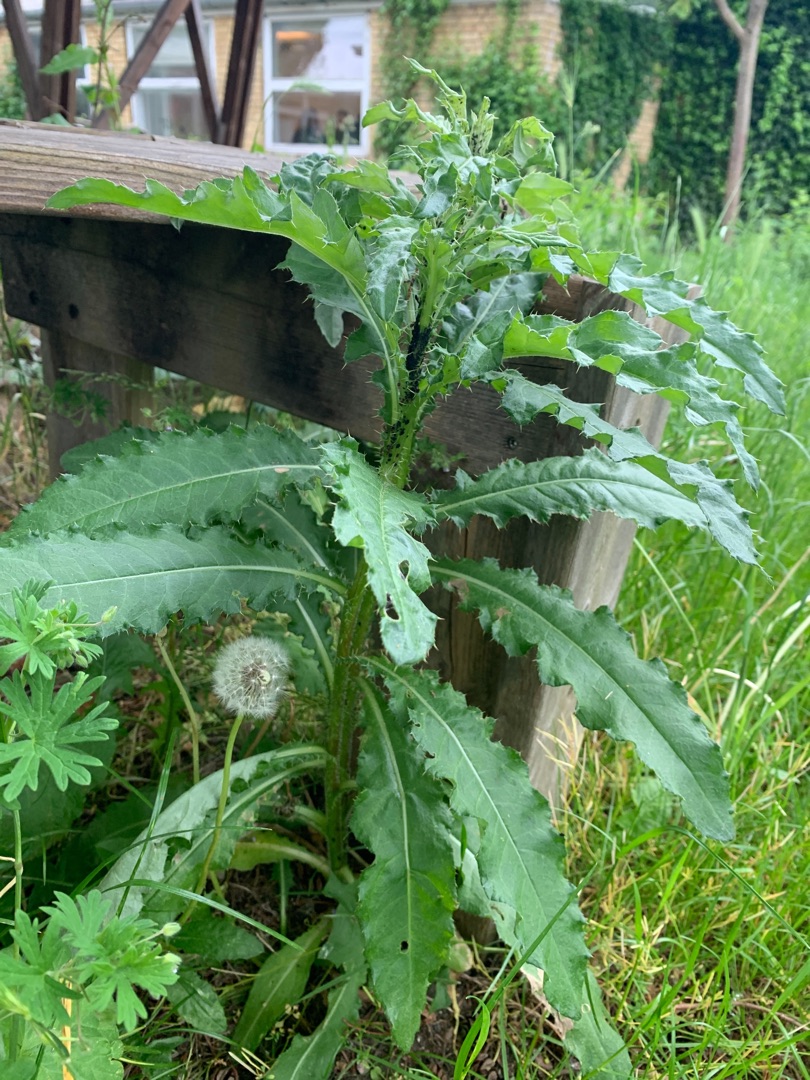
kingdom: Plantae
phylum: Tracheophyta
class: Magnoliopsida
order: Asterales
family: Asteraceae
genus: Matricaria
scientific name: Matricaria discoidea
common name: Skive-kamille
